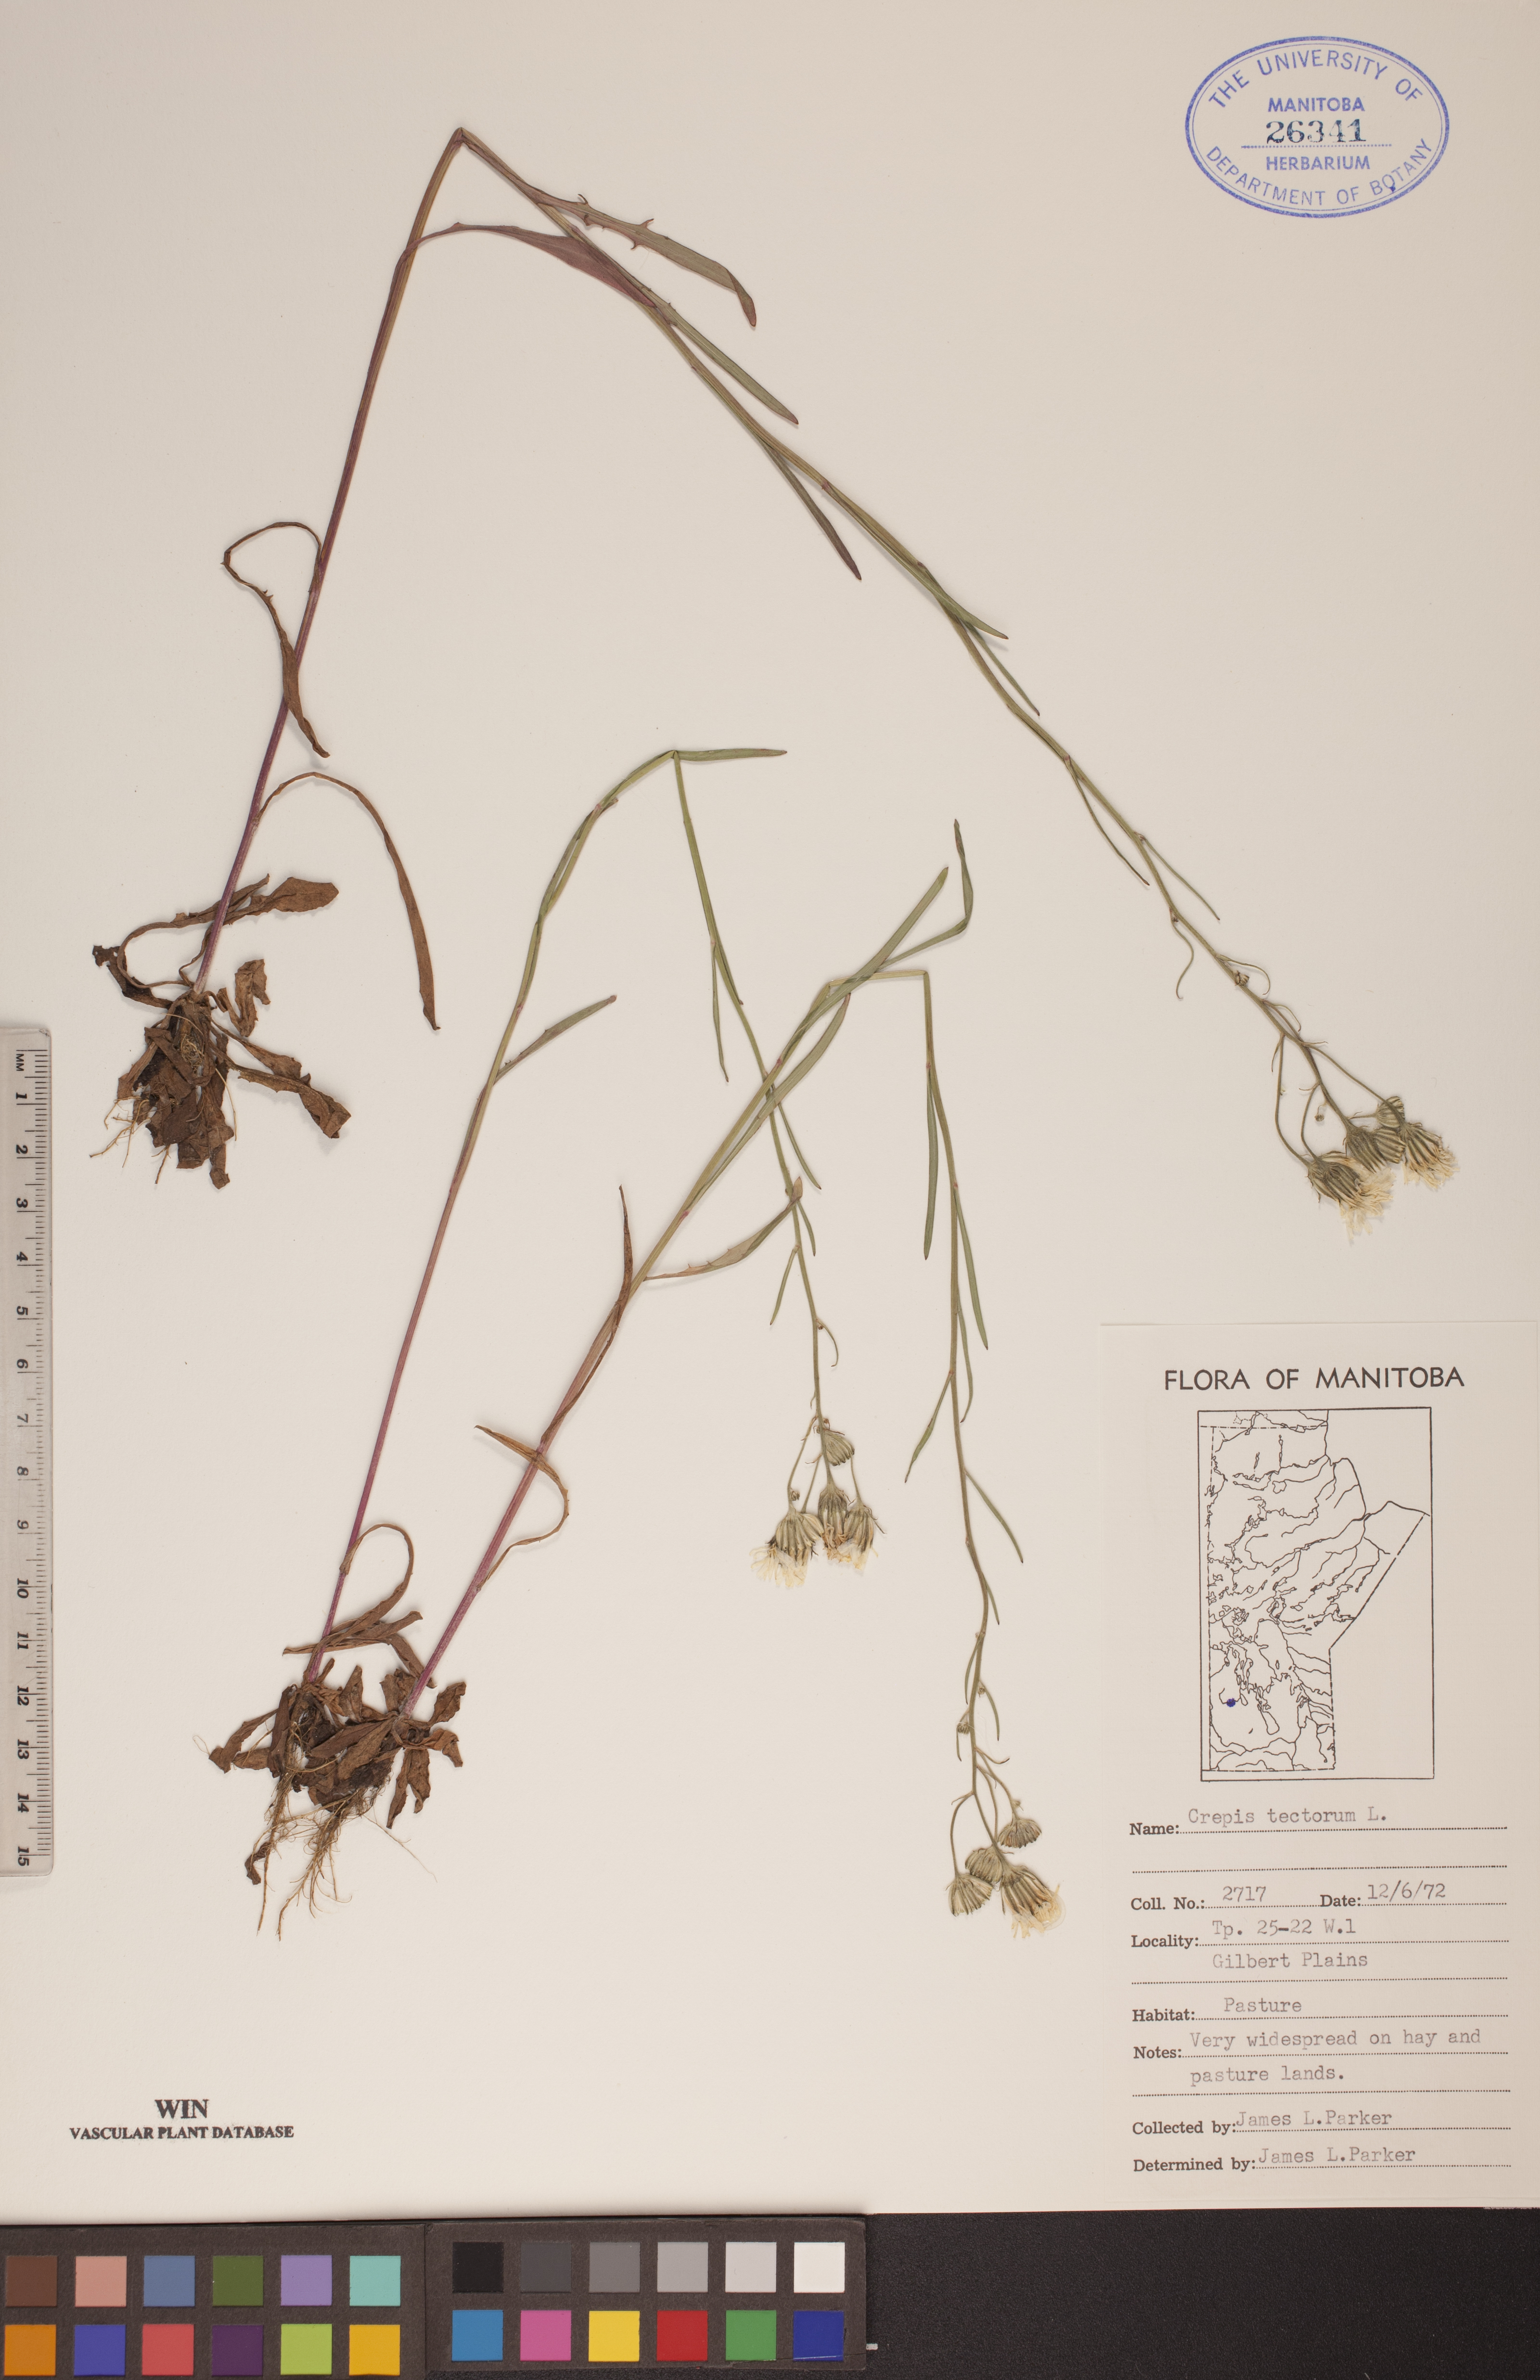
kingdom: Plantae
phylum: Tracheophyta
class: Magnoliopsida
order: Asterales
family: Asteraceae
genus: Crepis
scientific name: Crepis tectorum
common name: Narrow-leaved hawk's-beard
